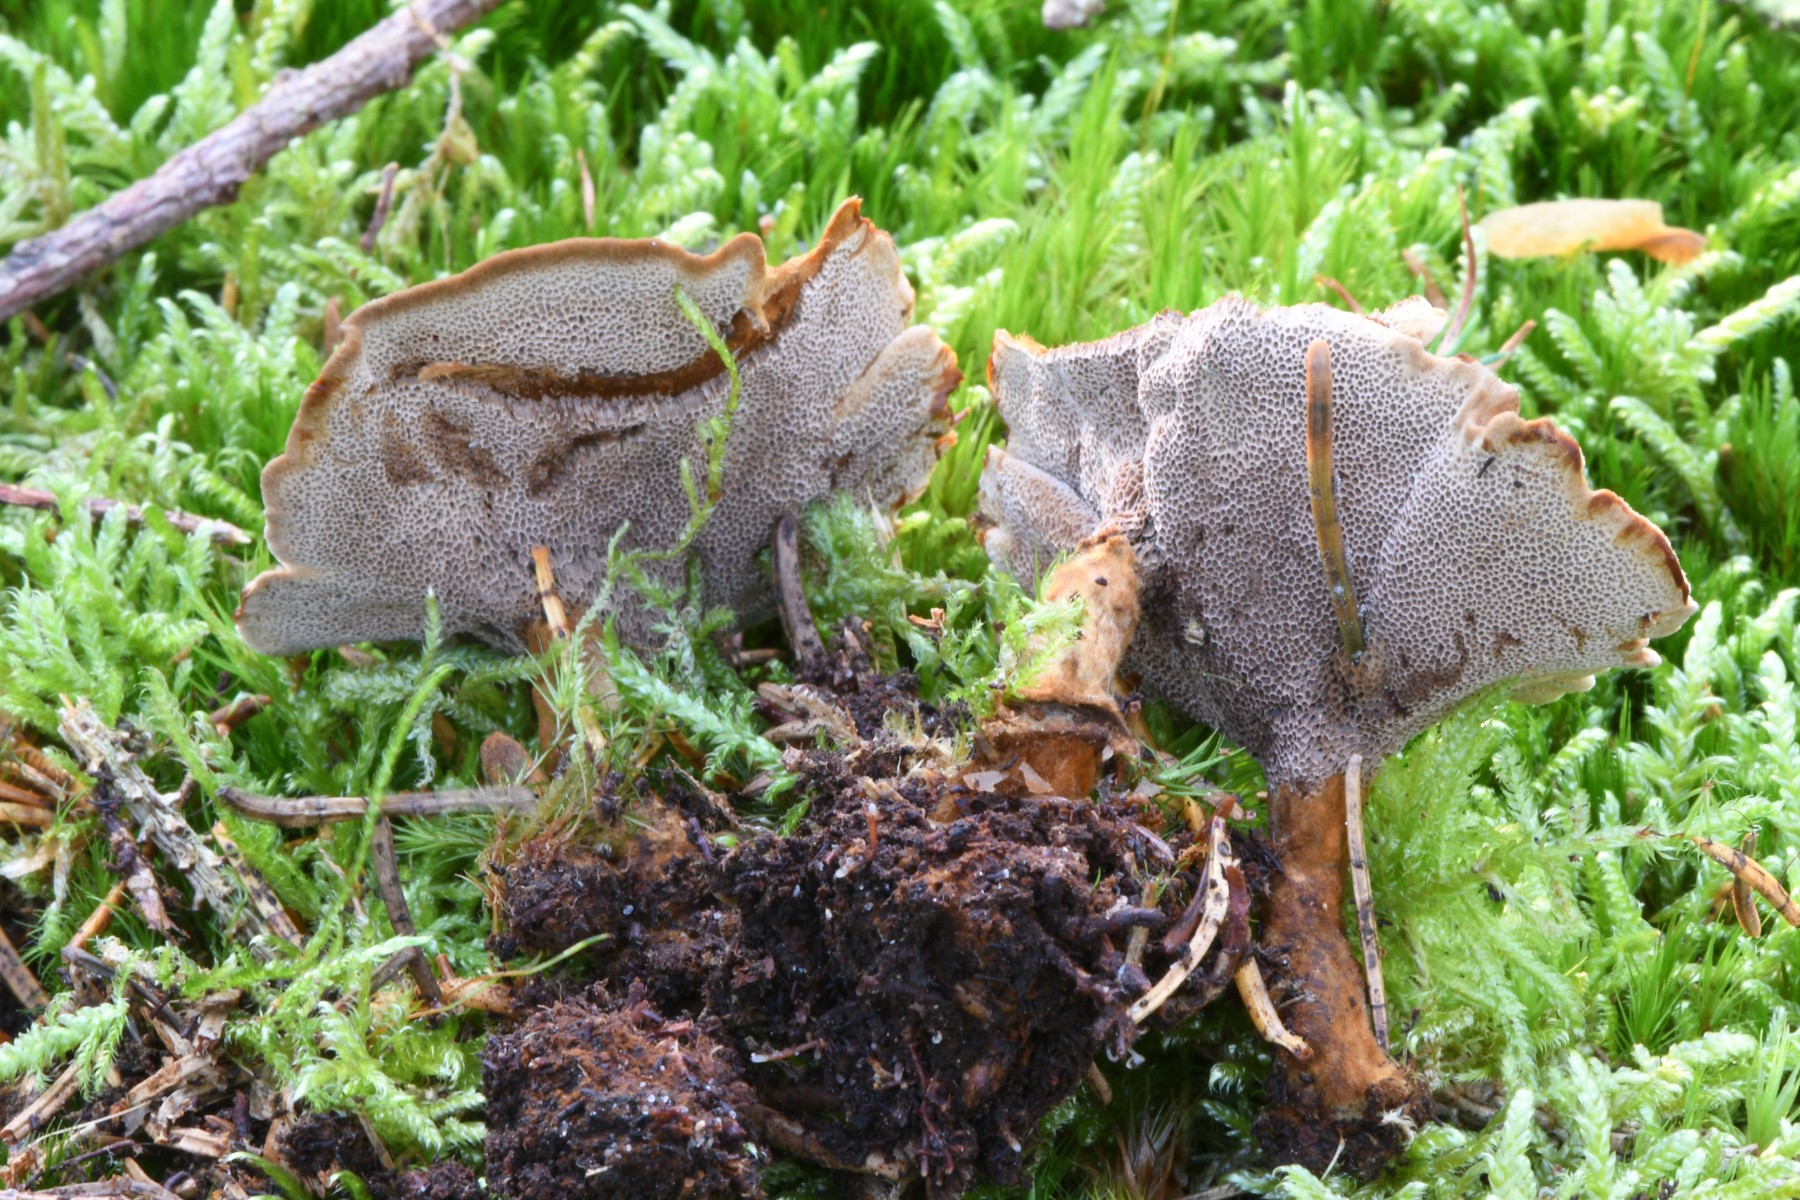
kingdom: Fungi
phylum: Basidiomycota
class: Agaricomycetes
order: Hymenochaetales
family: Hymenochaetaceae
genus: Coltricia
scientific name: Coltricia perennis
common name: almindelig sandporesvamp
